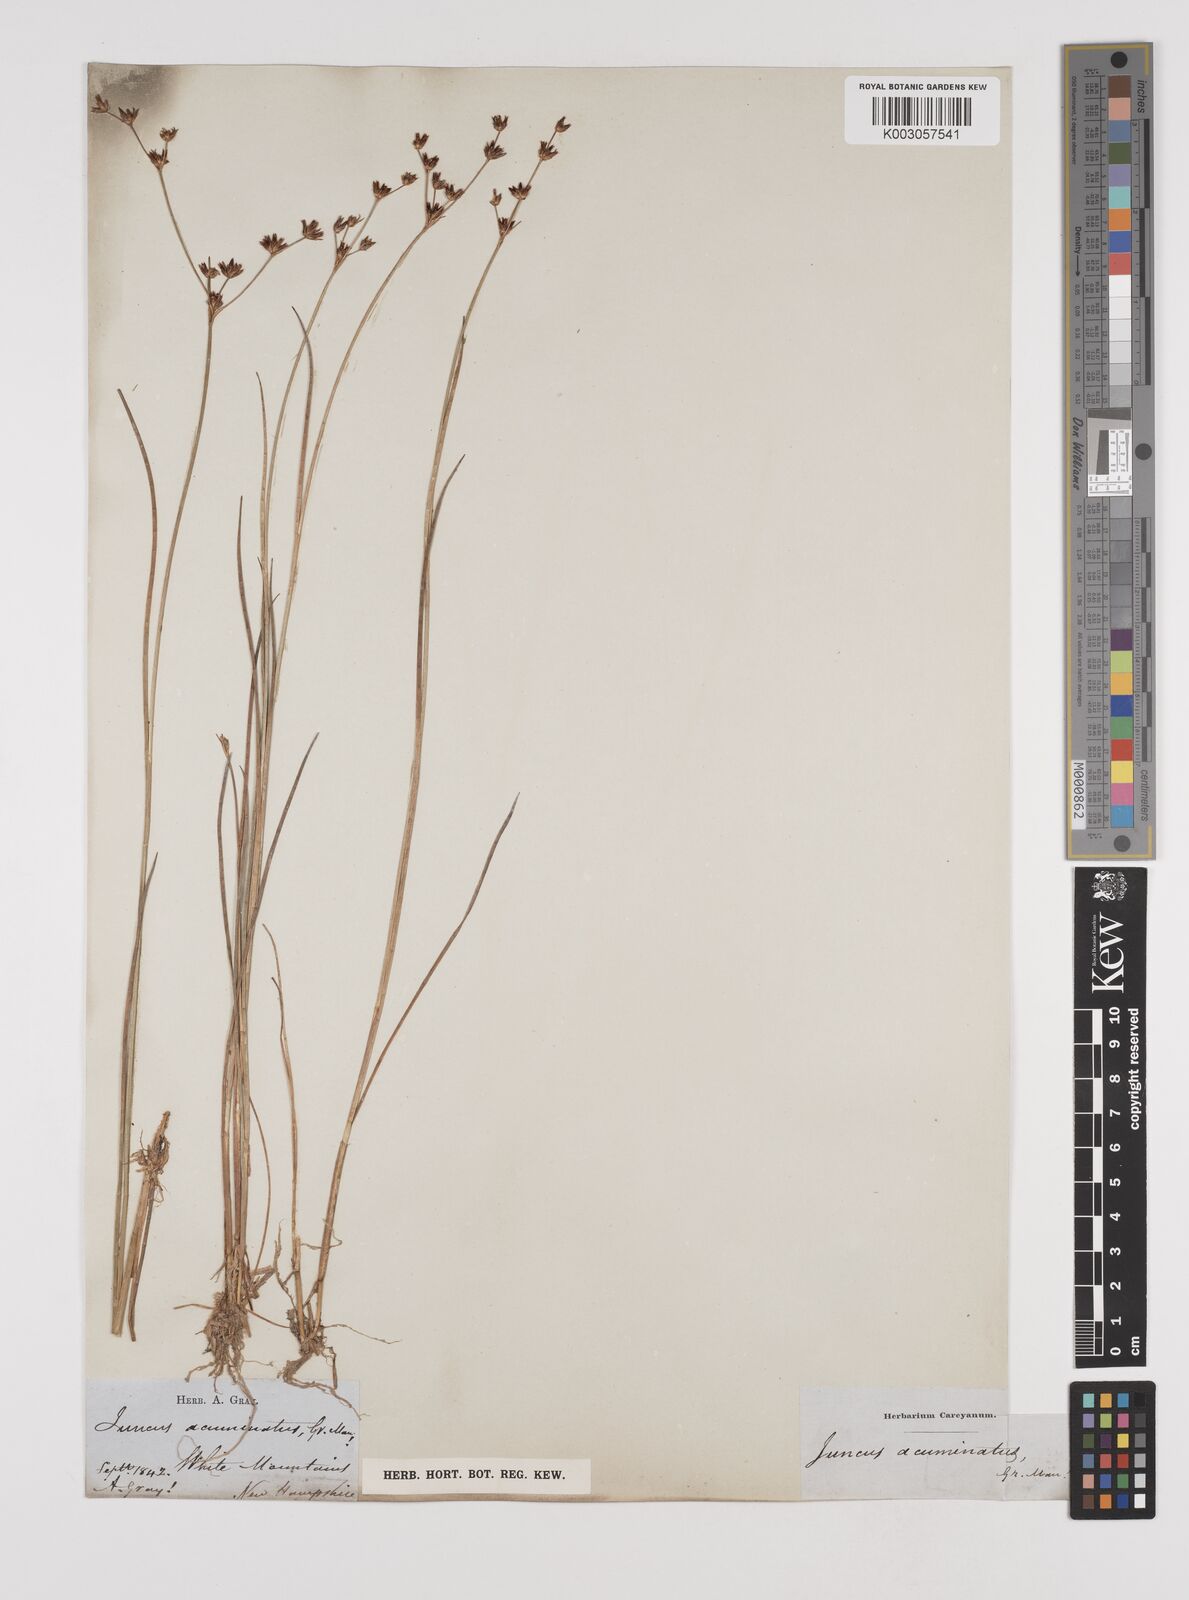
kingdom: Plantae
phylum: Tracheophyta
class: Liliopsida
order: Poales
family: Juncaceae
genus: Juncus
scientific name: Juncus acuminatus
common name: Knotty-leaved rush
